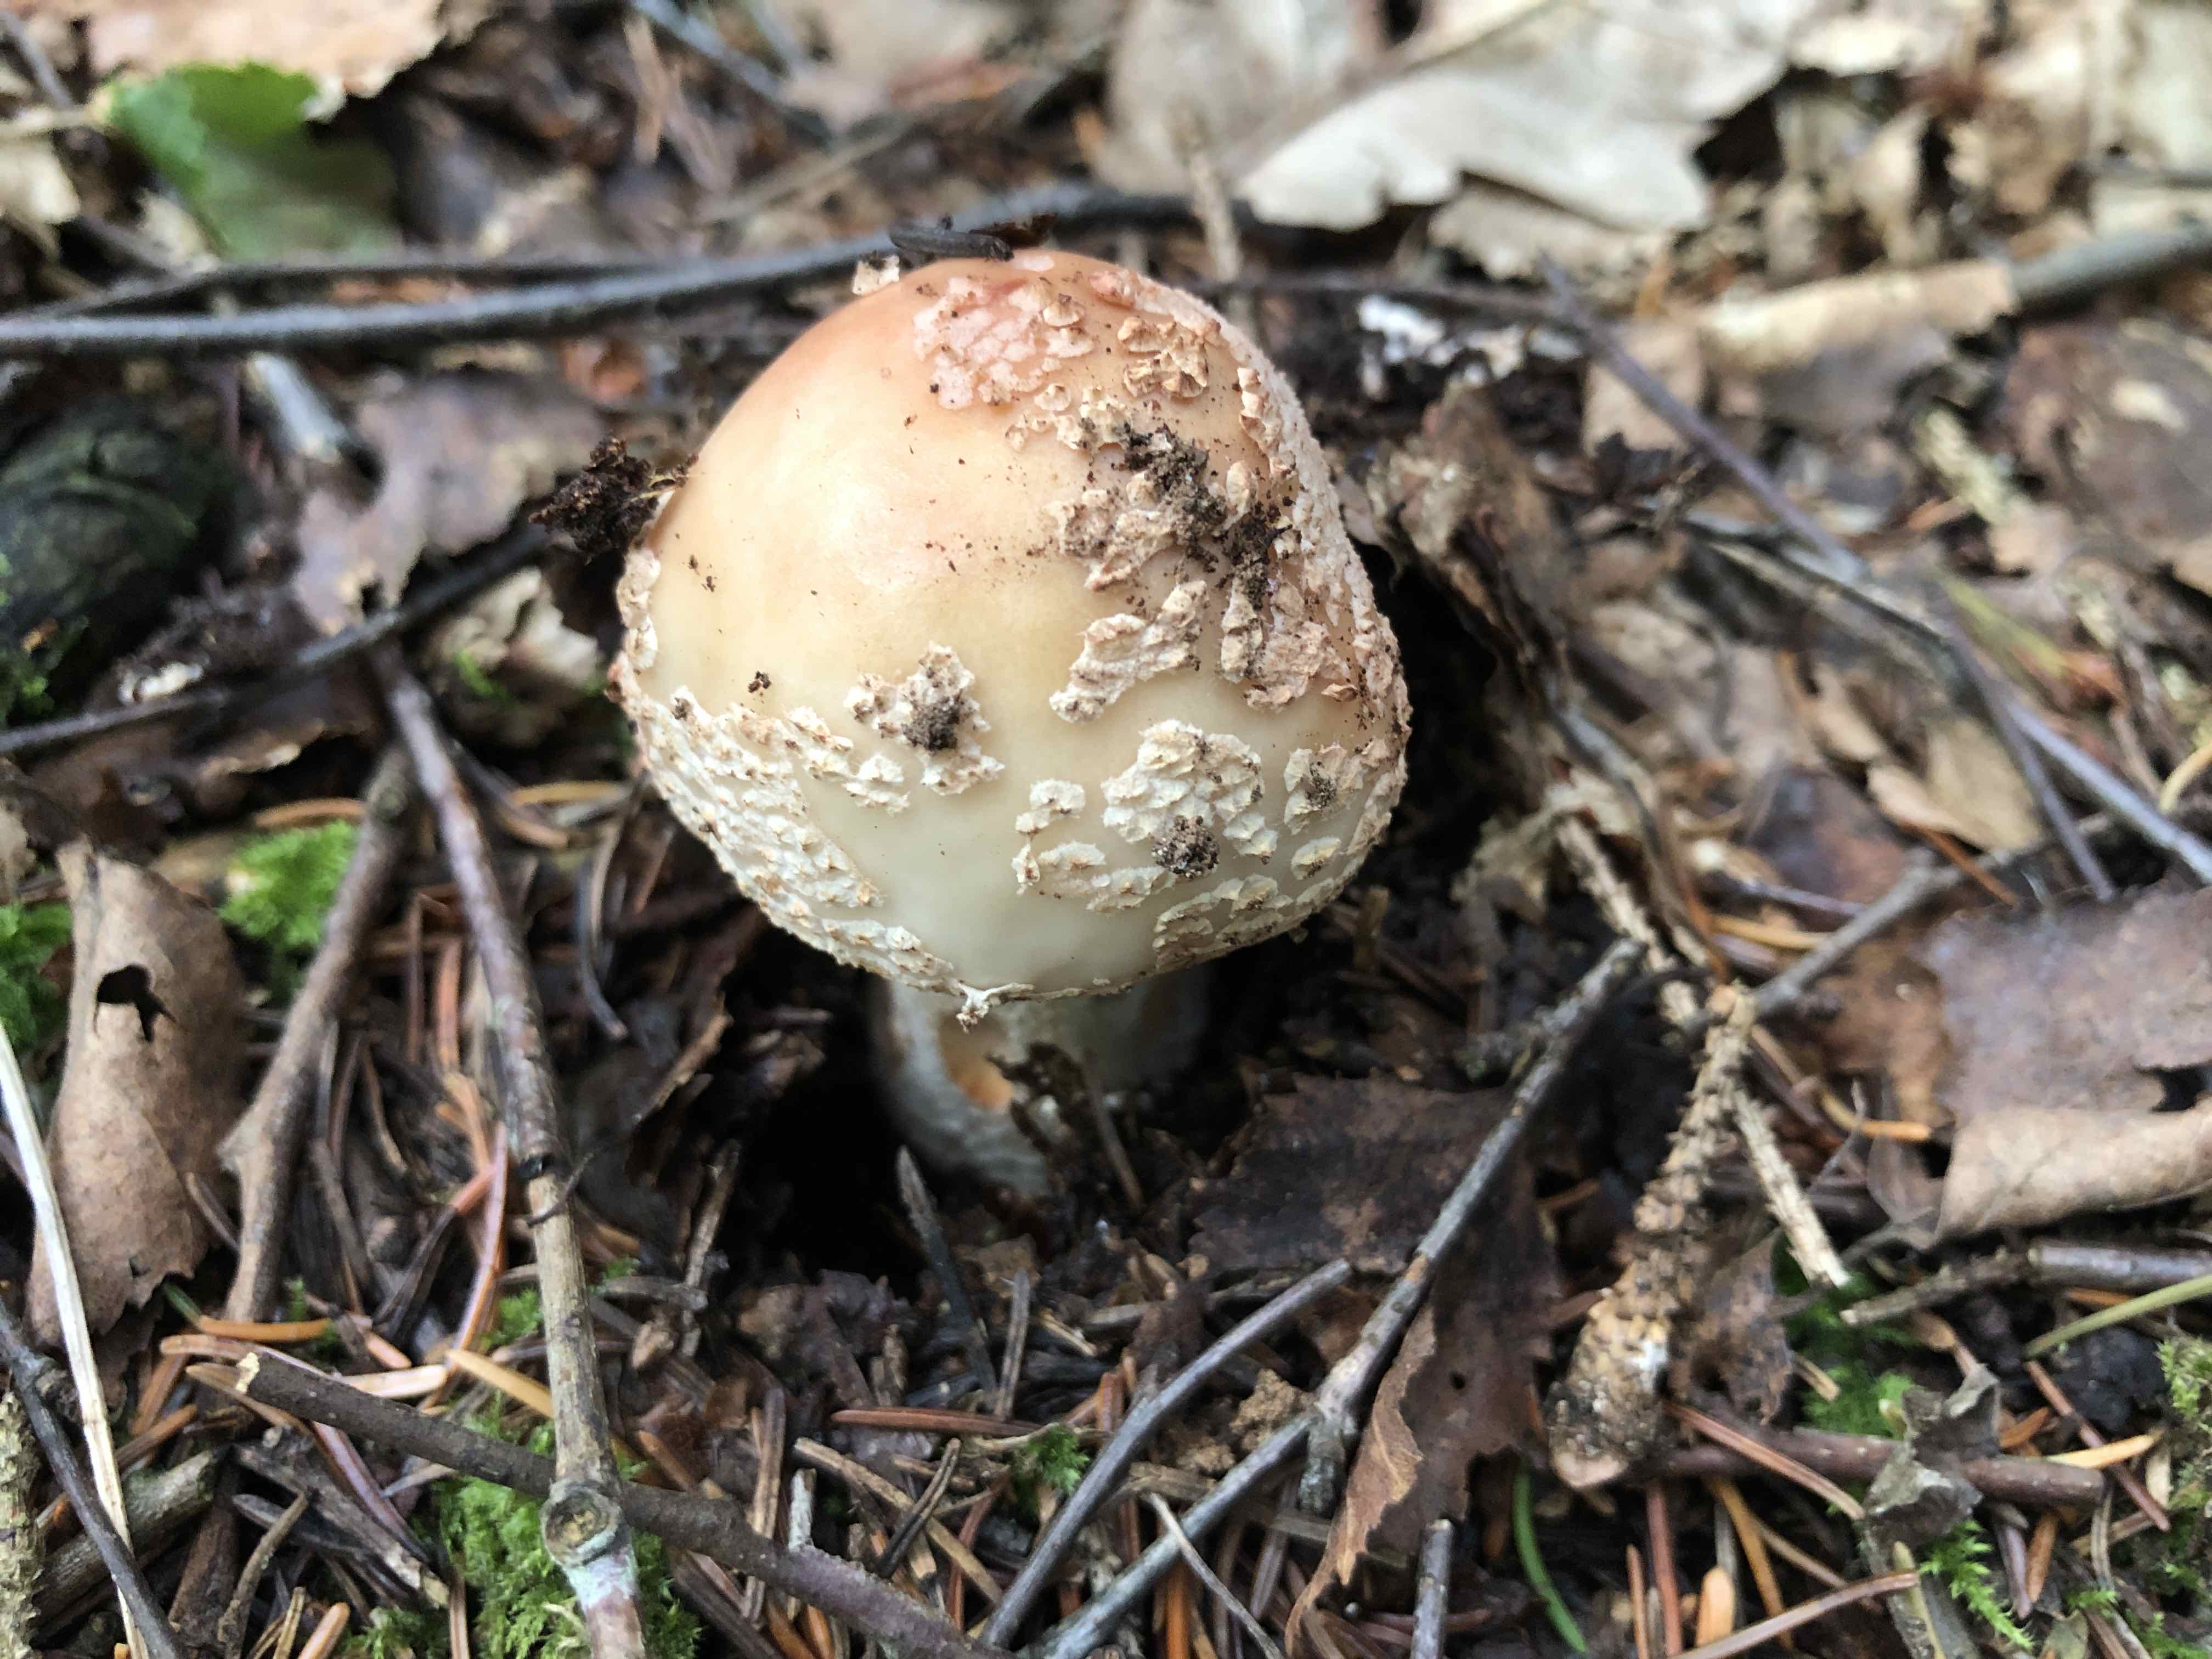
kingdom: Fungi
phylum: Basidiomycota
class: Agaricomycetes
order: Agaricales
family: Amanitaceae
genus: Amanita
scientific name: Amanita rubescens
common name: rødmende fluesvamp
